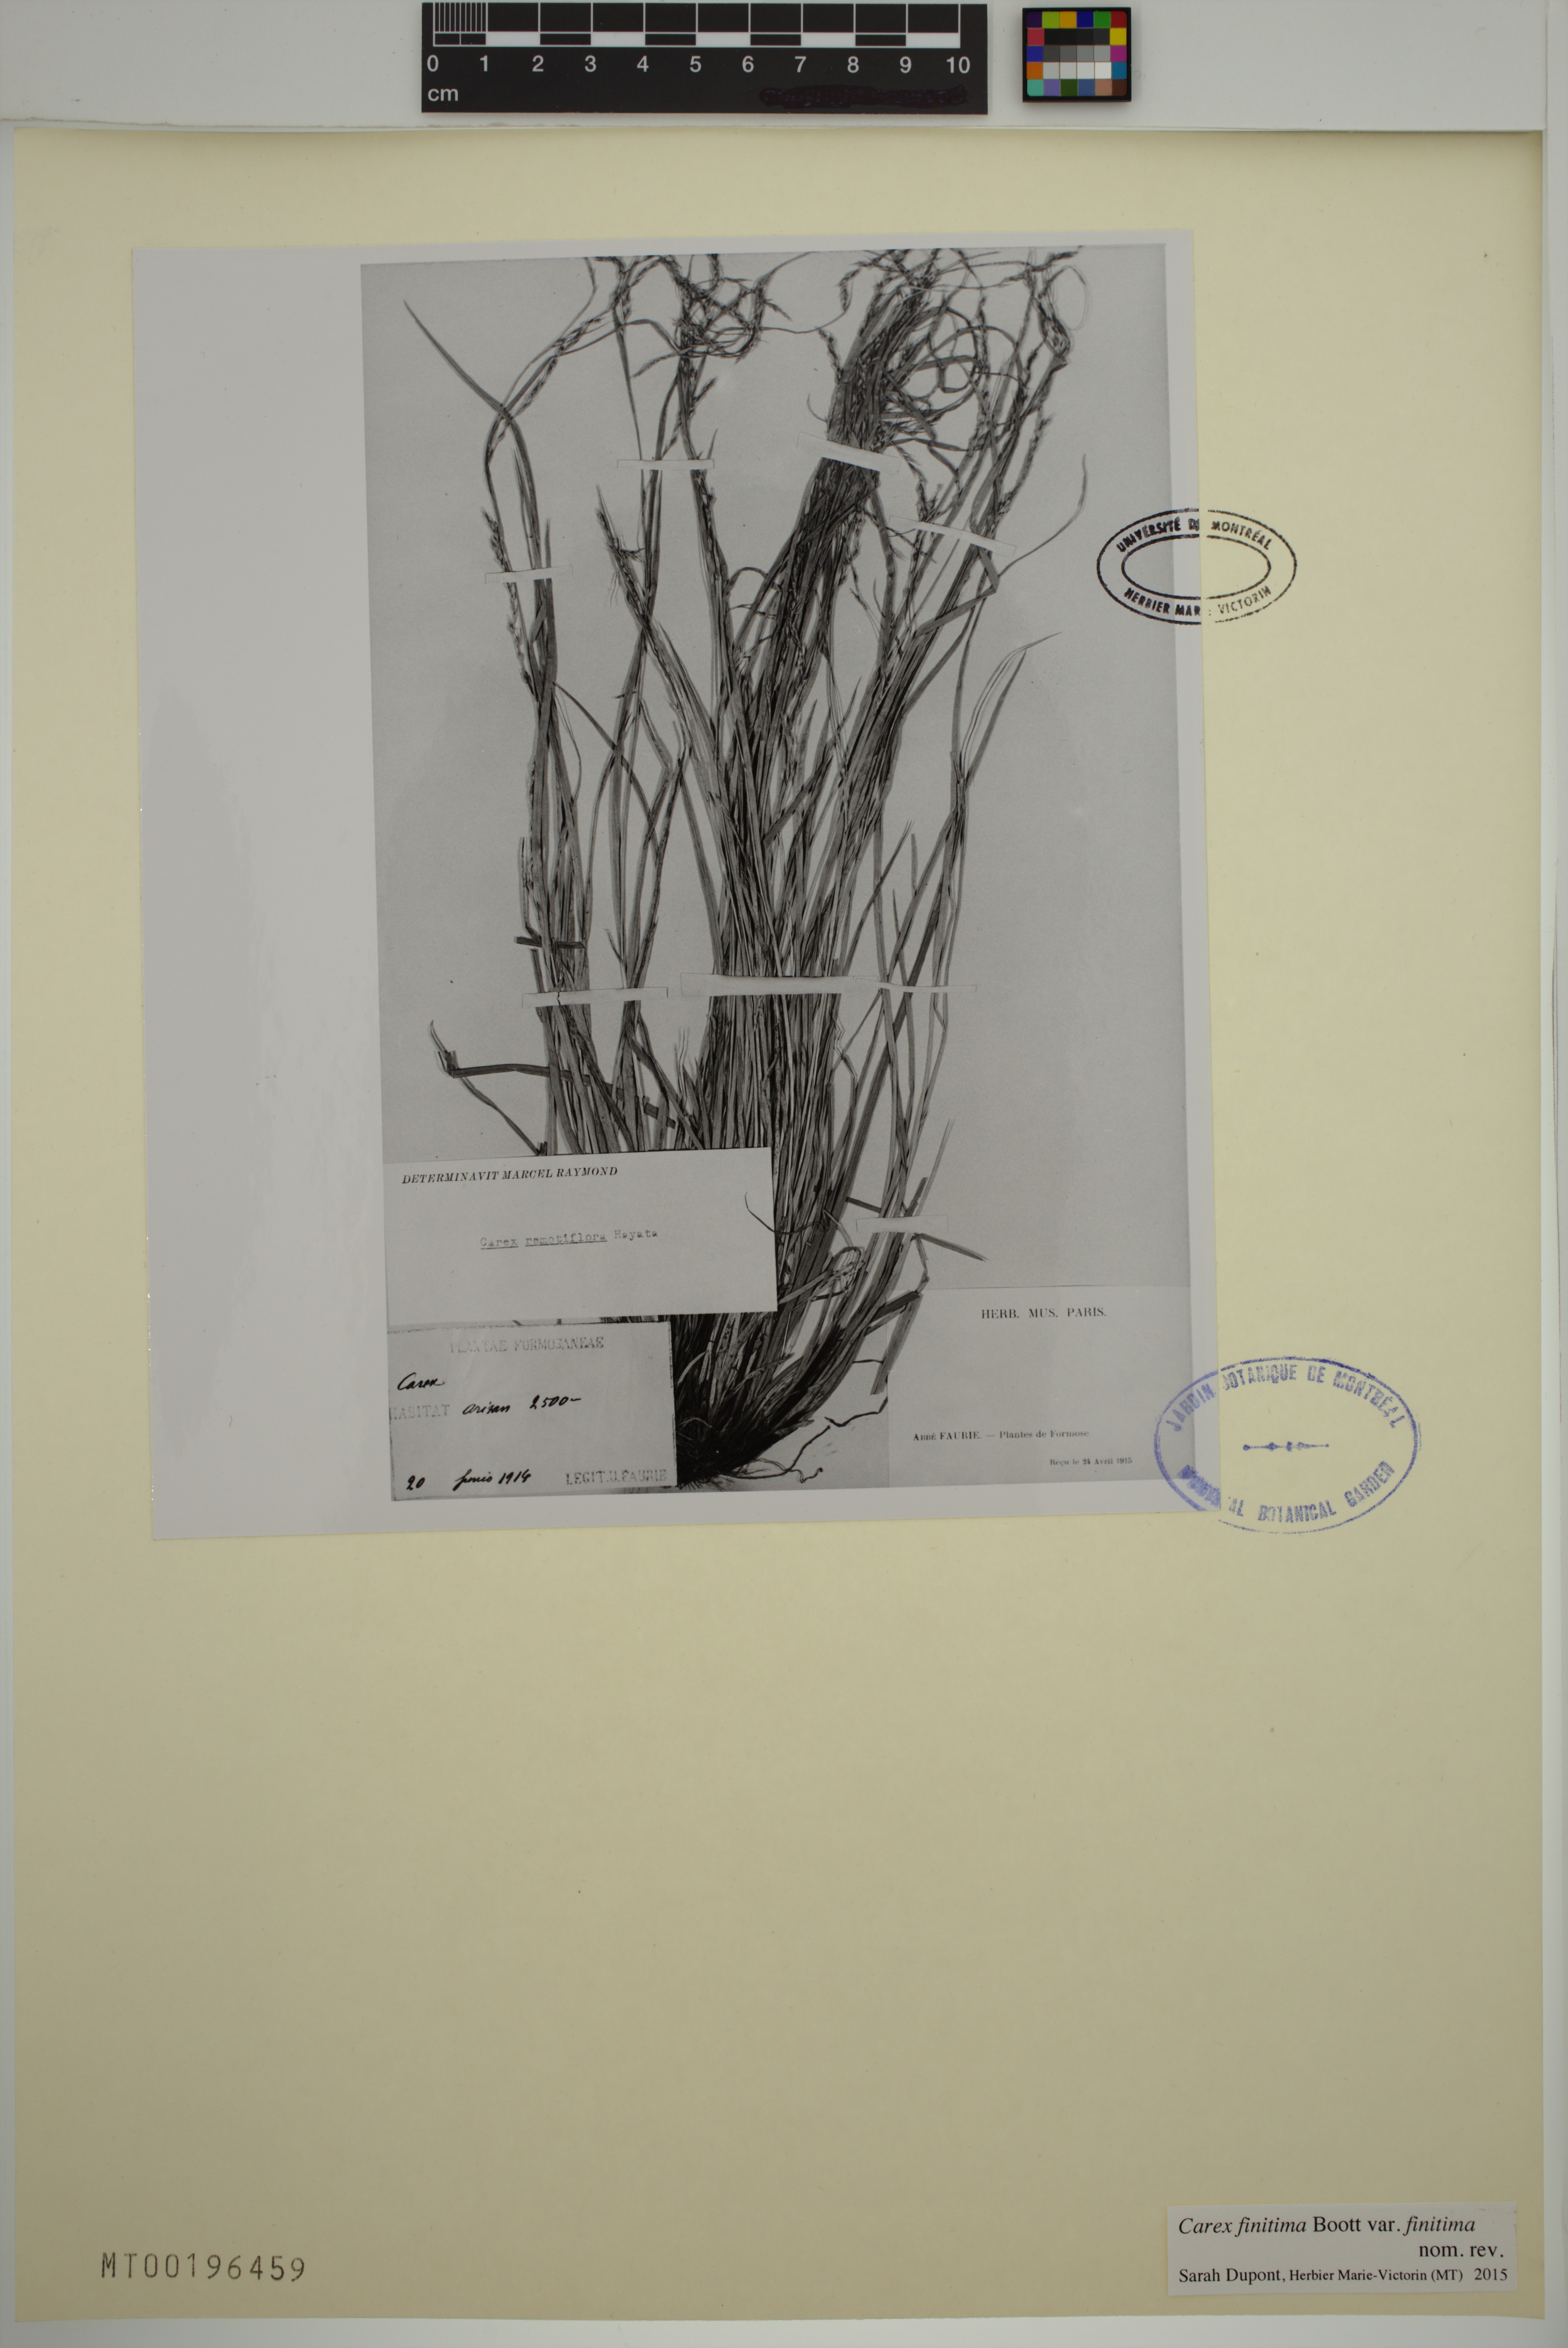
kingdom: Plantae
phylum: Tracheophyta
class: Liliopsida
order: Poales
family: Cyperaceae
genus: Carex
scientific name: Carex finitima
